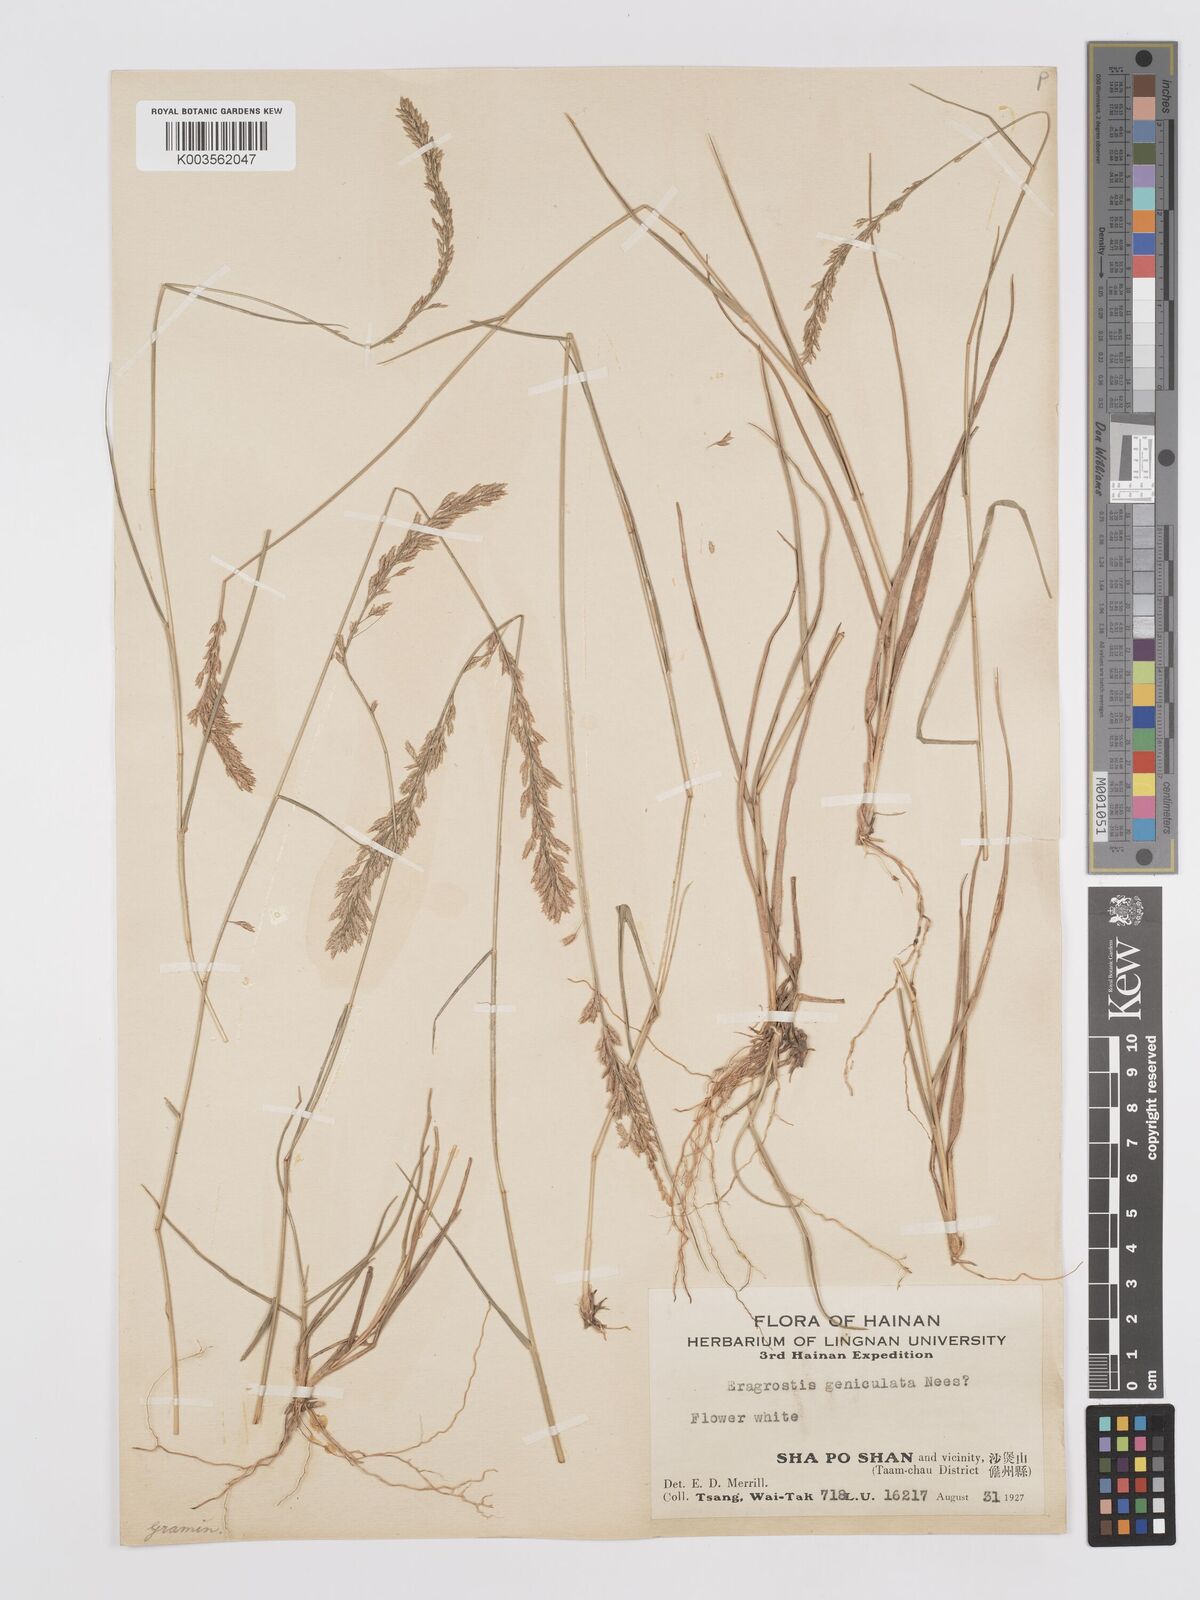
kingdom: Plantae
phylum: Tracheophyta
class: Liliopsida
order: Poales
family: Poaceae
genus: Eragrostis
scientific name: Eragrostis cylindrica
